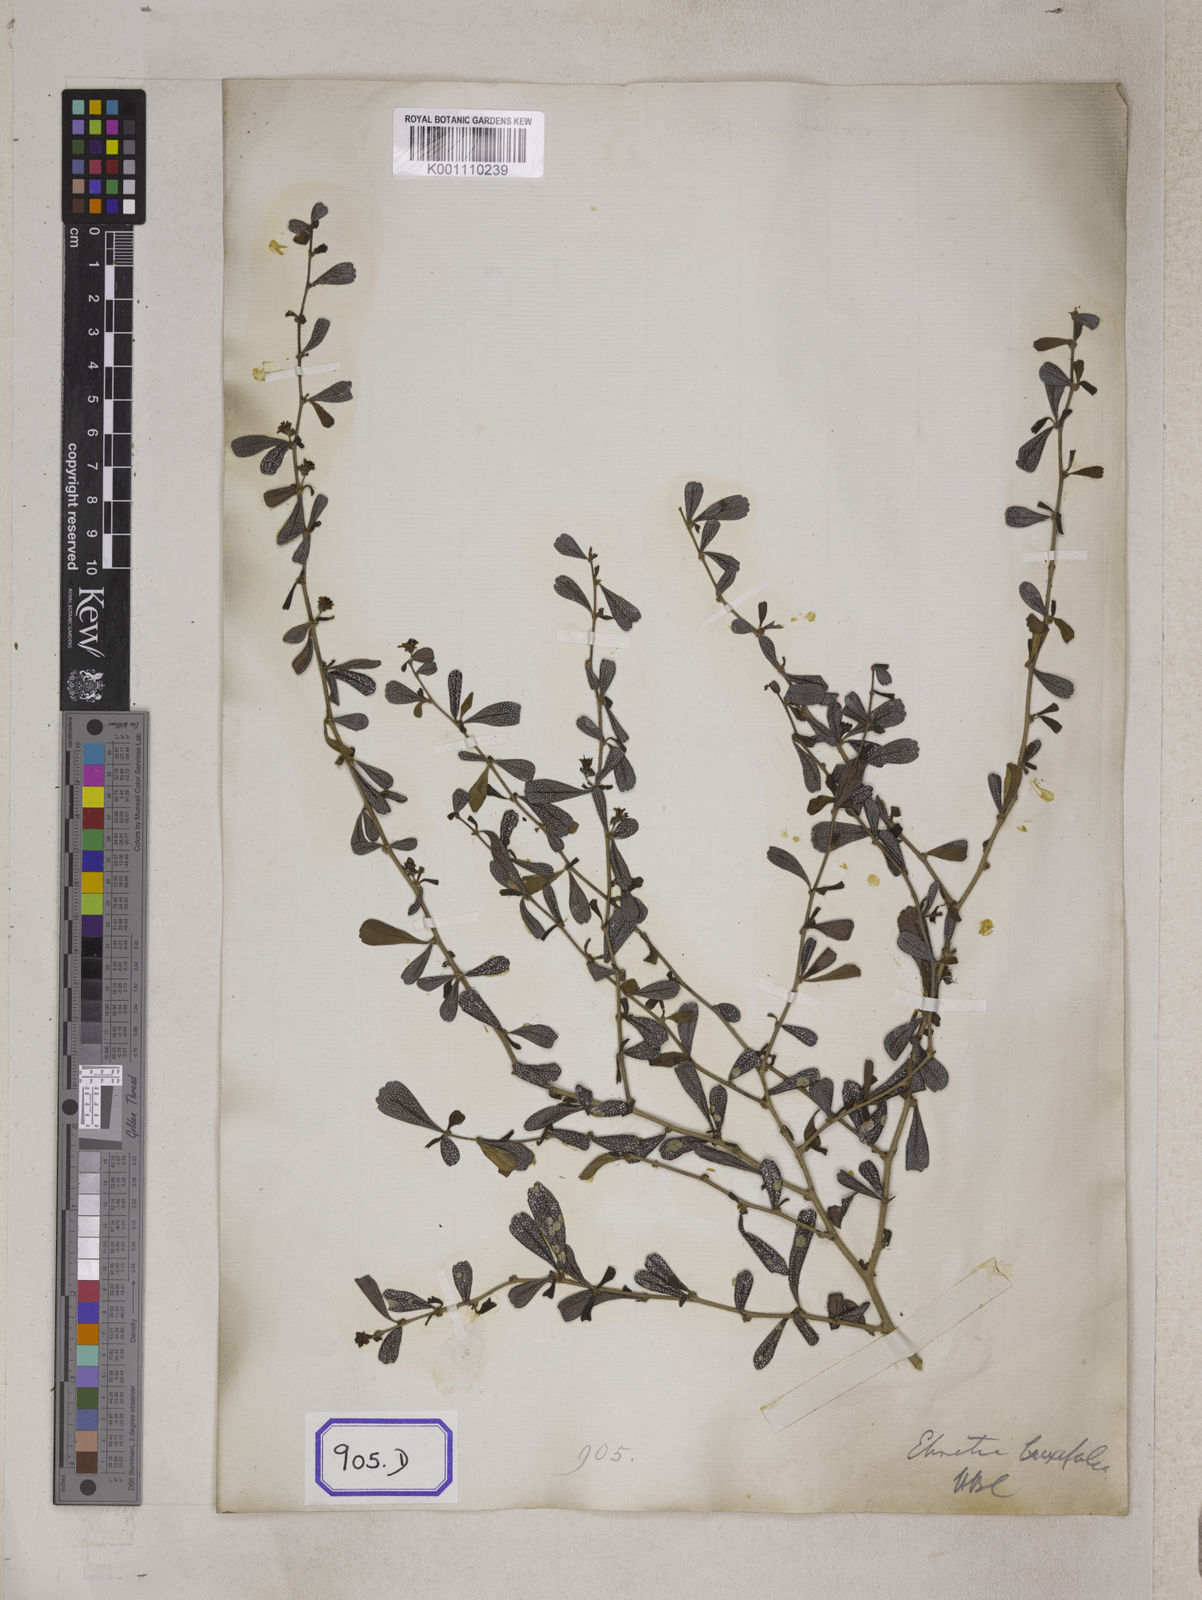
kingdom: Plantae
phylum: Tracheophyta
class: Magnoliopsida
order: Boraginales
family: Ehretiaceae
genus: Ehretia
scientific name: Ehretia microphylla
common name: Fukien-tea
